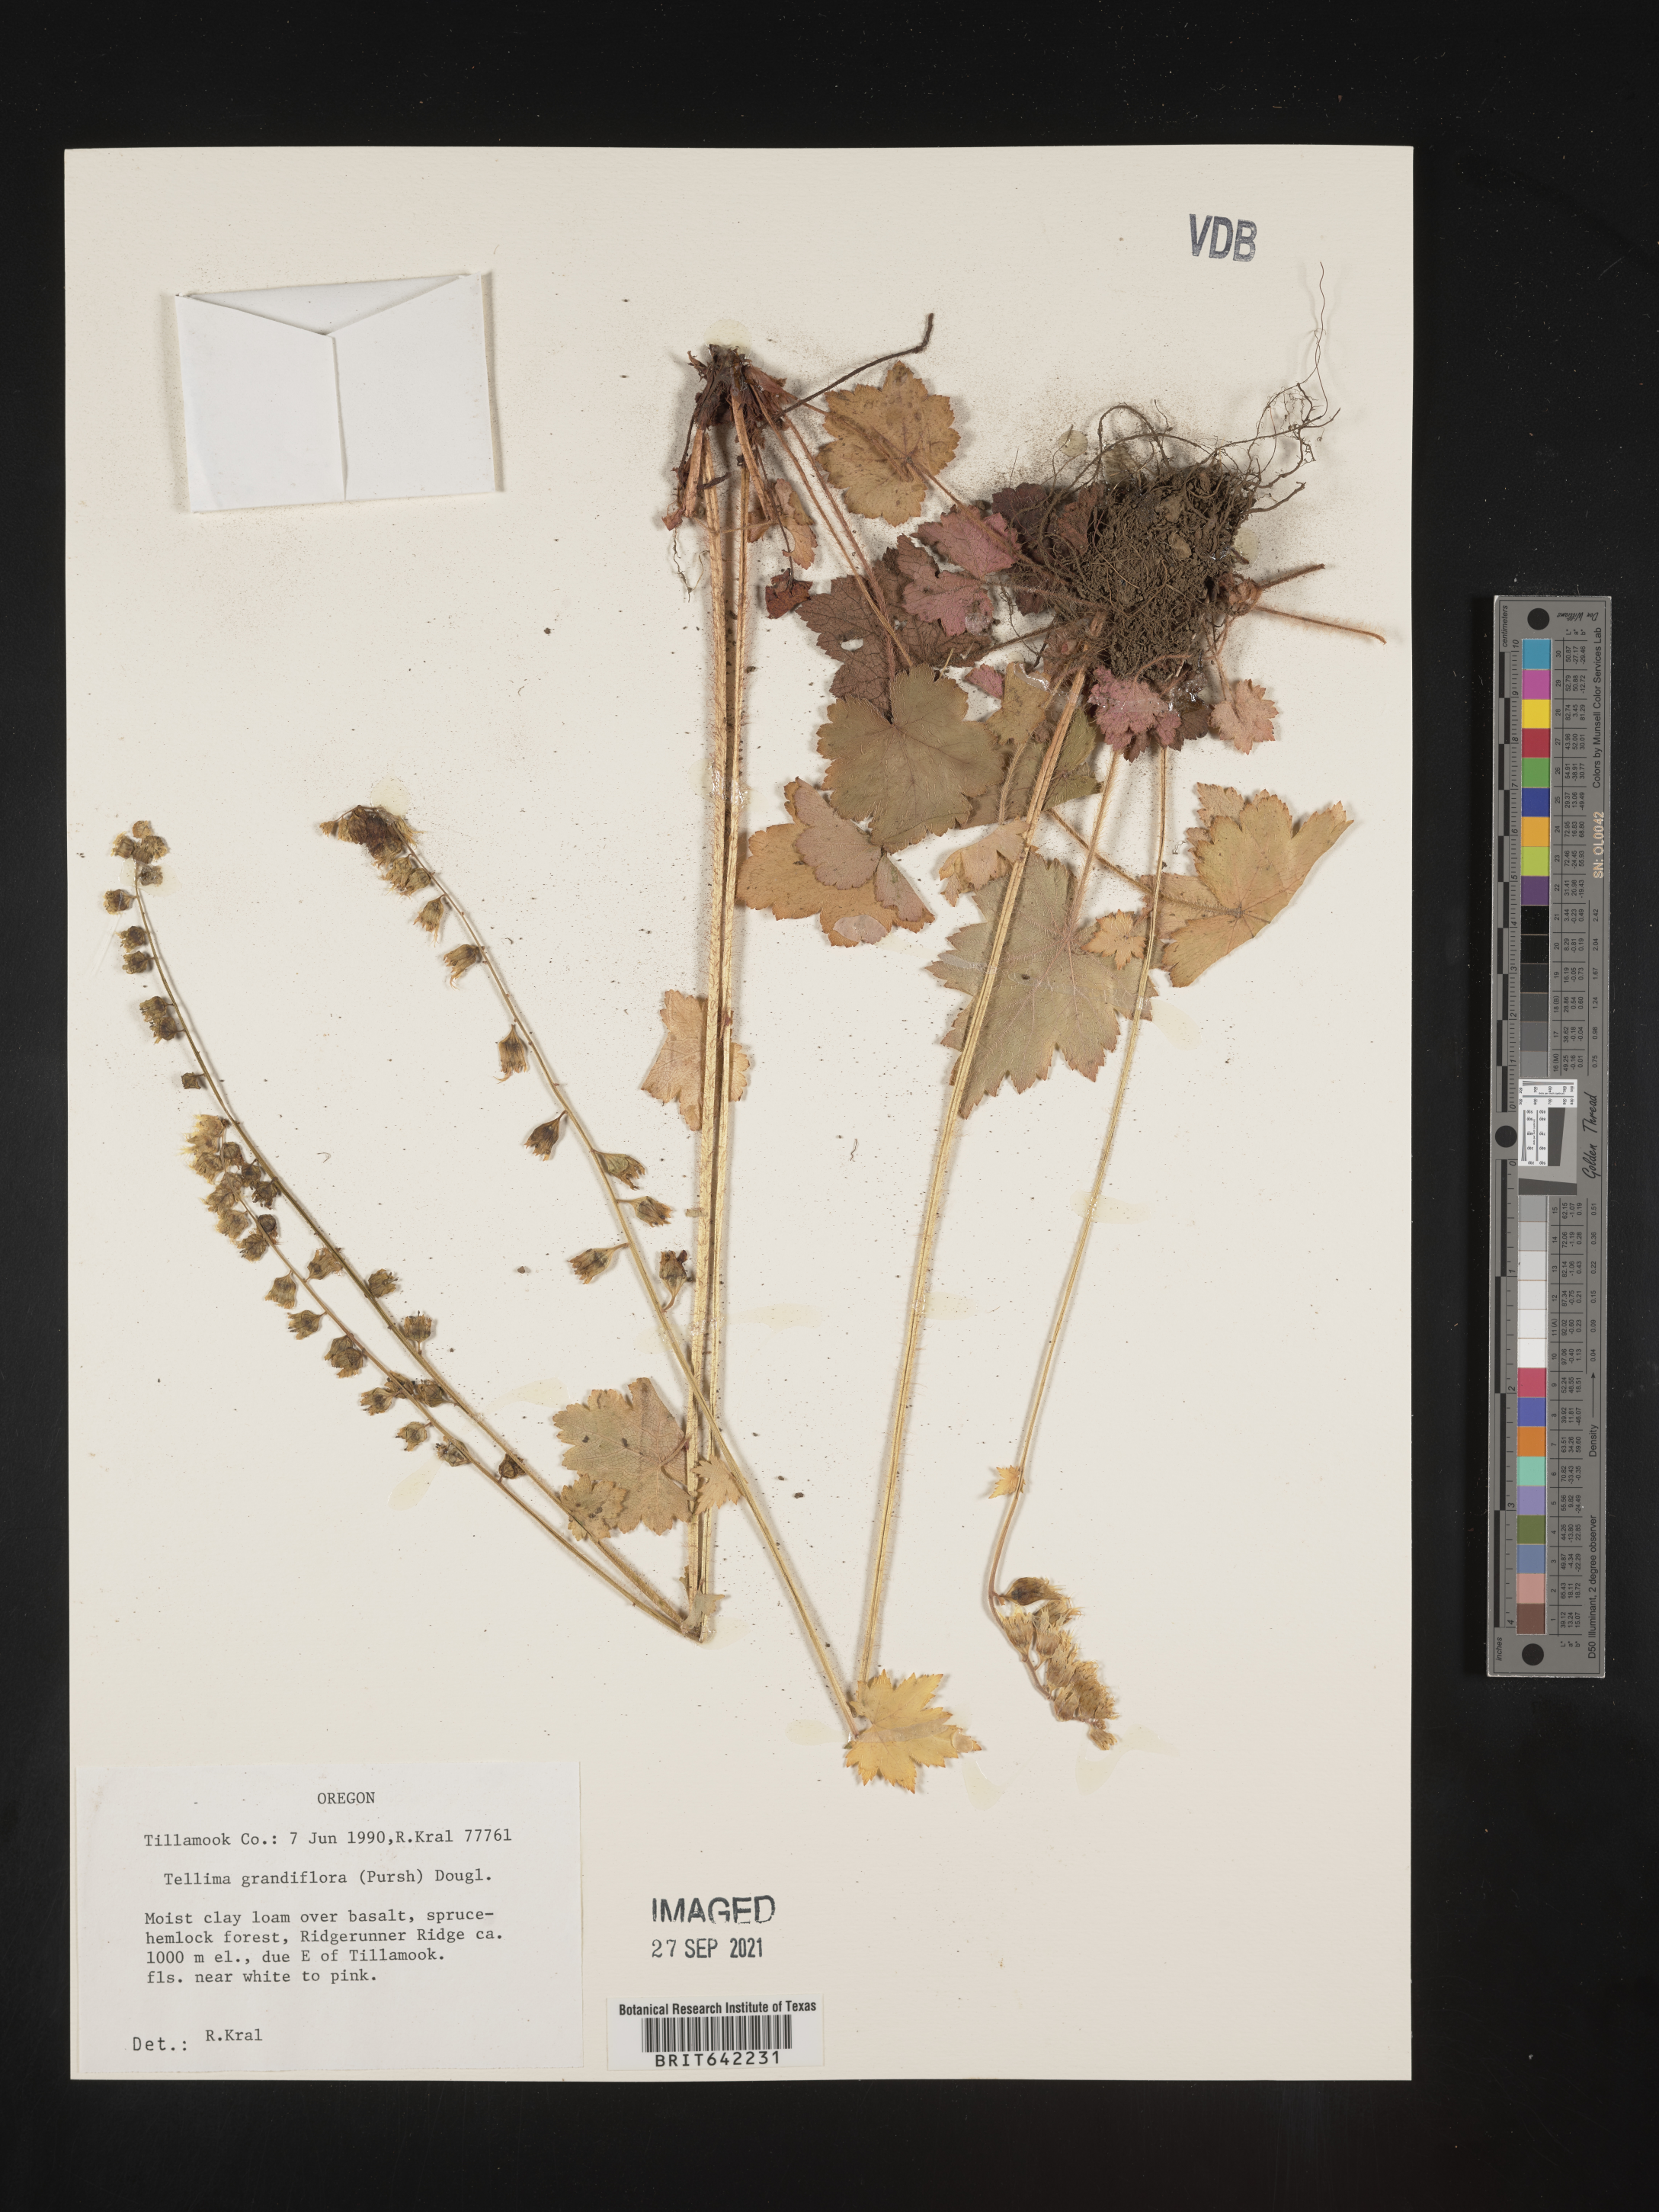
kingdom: Plantae
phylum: Tracheophyta
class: Magnoliopsida
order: Saxifragales
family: Saxifragaceae
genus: Tellima
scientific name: Tellima grandiflora
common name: Fringecups
